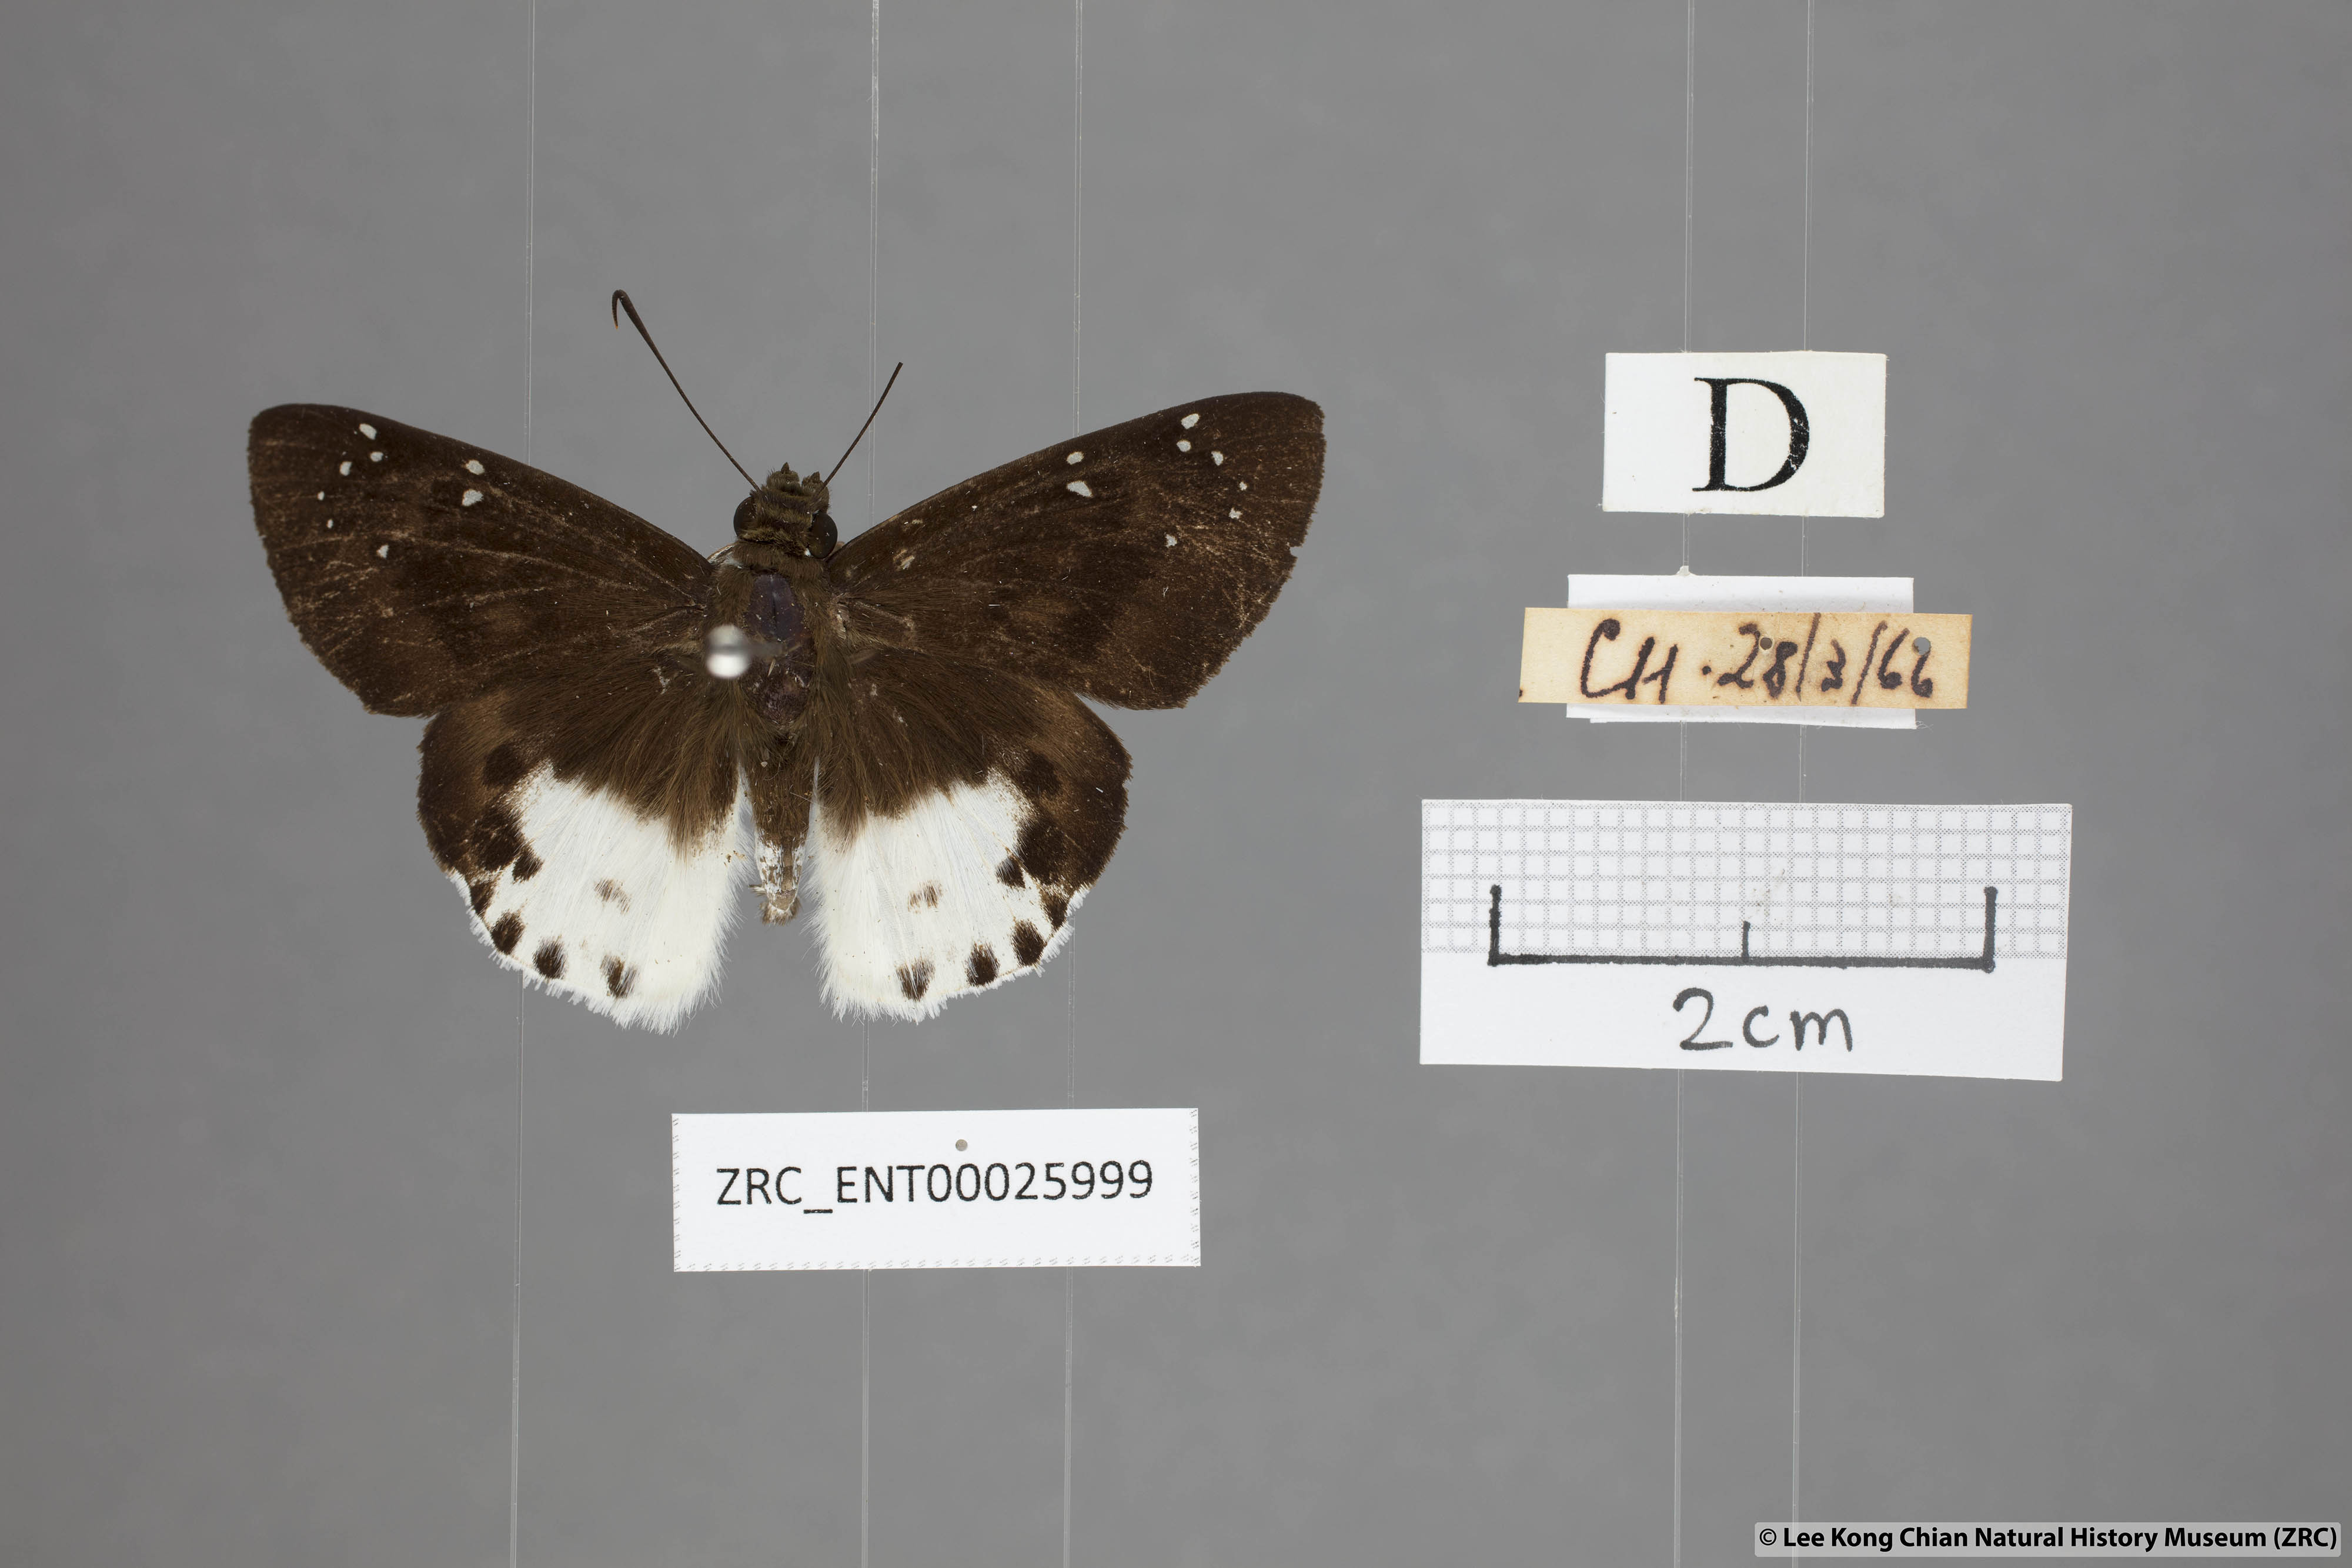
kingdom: Animalia
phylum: Arthropoda
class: Insecta
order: Lepidoptera
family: Hesperiidae
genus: Tagiades
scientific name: Tagiades menaka
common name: Dark-edged snow flat
